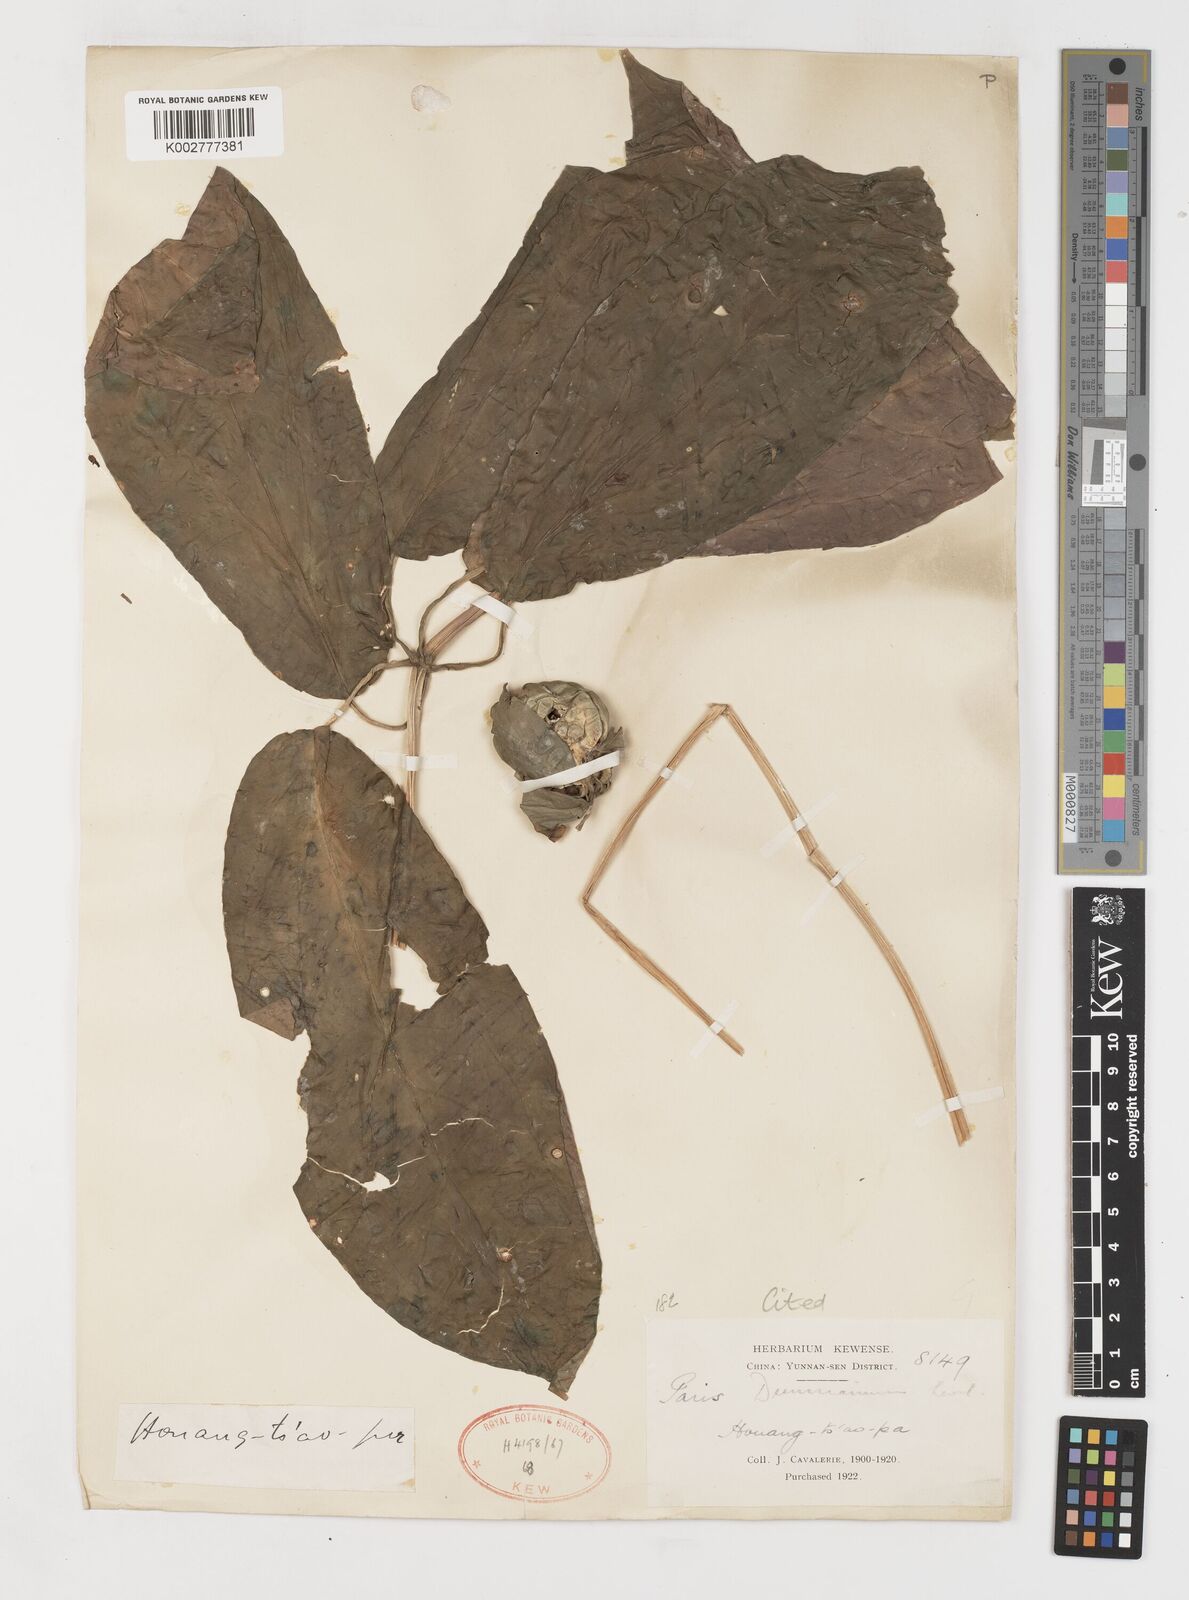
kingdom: Plantae
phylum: Tracheophyta
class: Liliopsida
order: Liliales
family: Melanthiaceae
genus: Paris
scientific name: Paris dunniana
